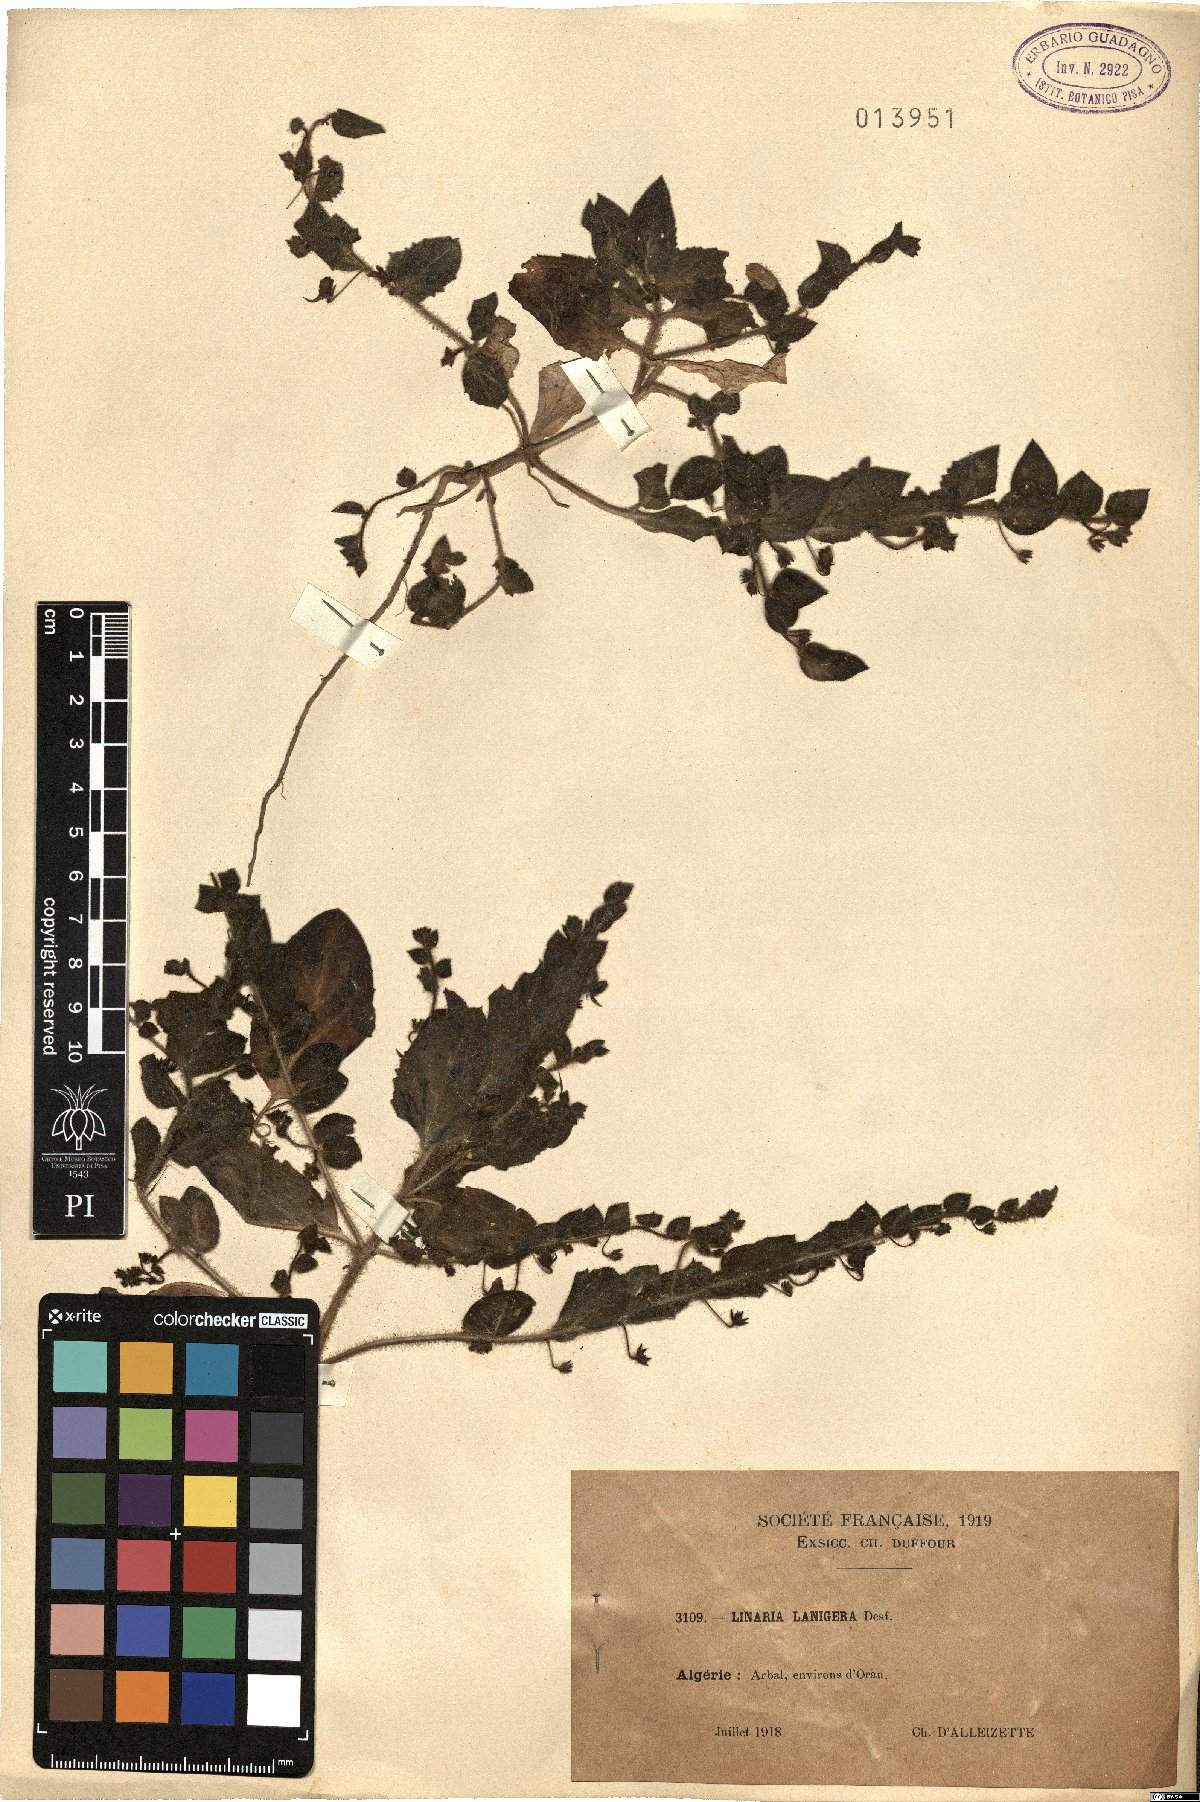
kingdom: Plantae
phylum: Tracheophyta
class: Magnoliopsida
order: Lamiales
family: Plantaginaceae
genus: Kickxia
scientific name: Kickxia lanigera
